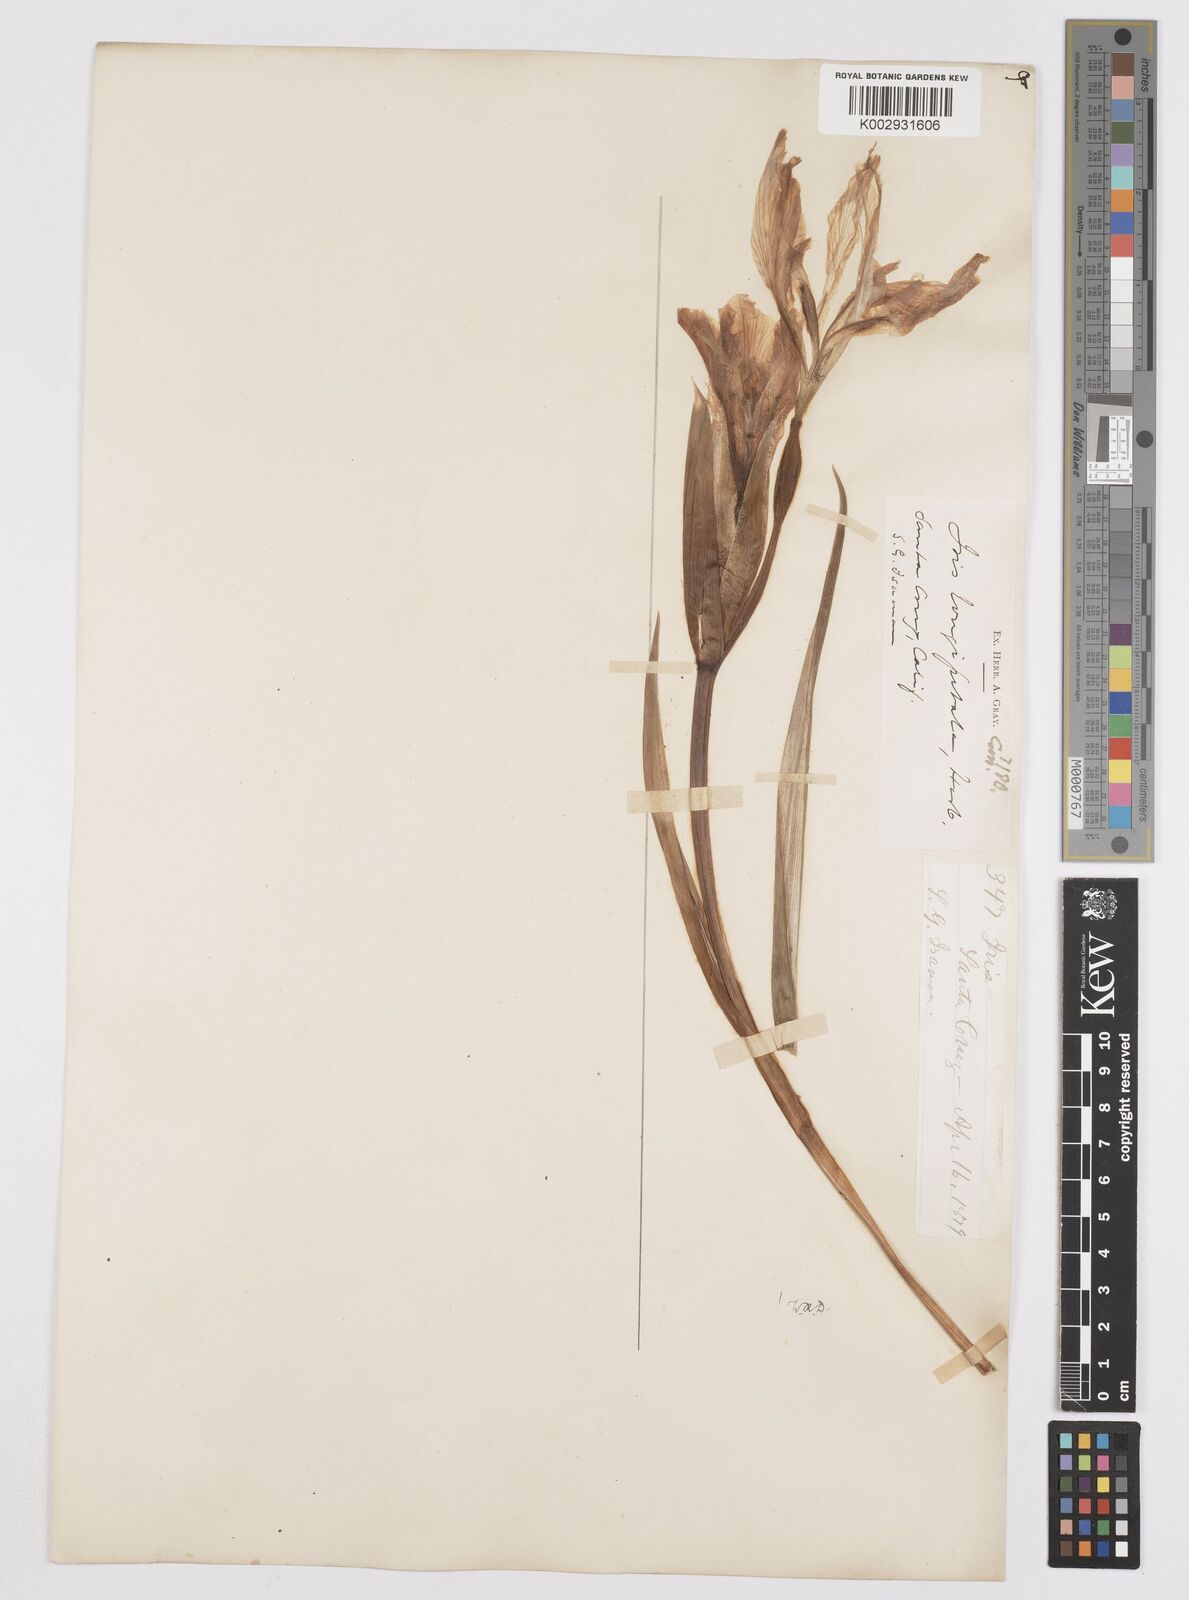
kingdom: Plantae
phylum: Tracheophyta
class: Liliopsida
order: Asparagales
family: Iridaceae
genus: Iris
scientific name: Iris longipetala
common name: Long-petal iris
